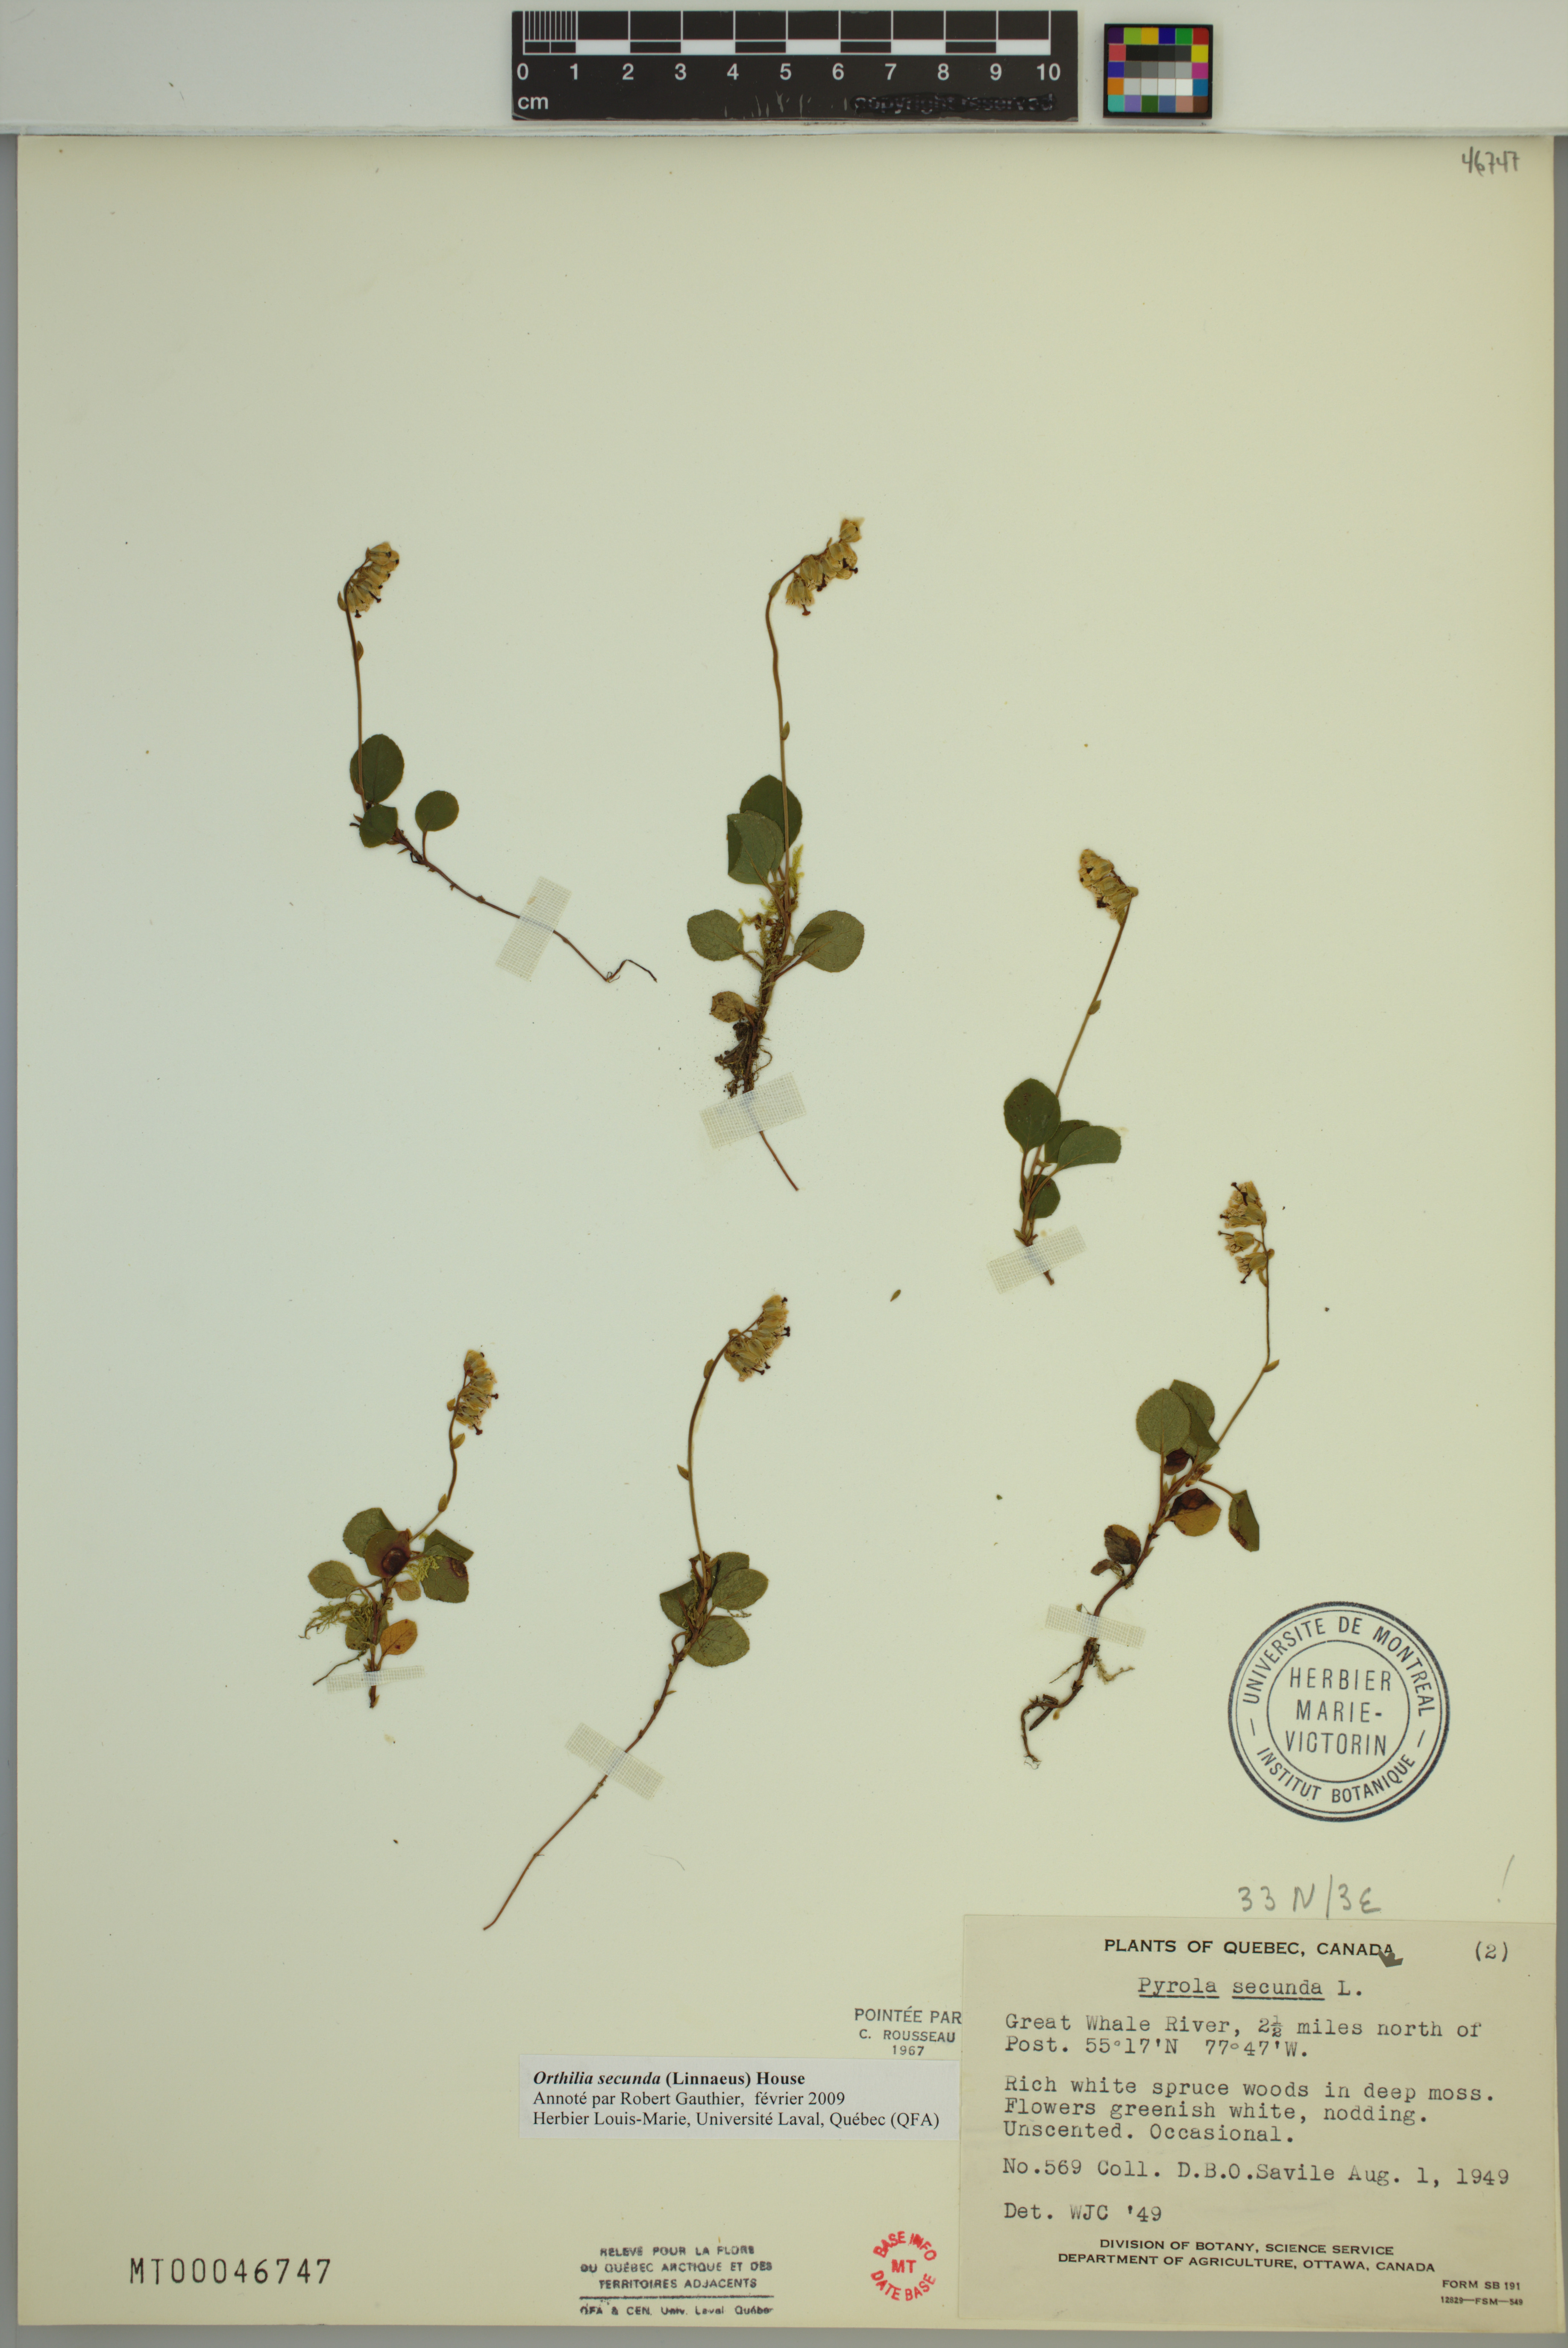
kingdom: Plantae
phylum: Tracheophyta
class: Magnoliopsida
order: Ericales
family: Ericaceae
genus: Orthilia
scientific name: Orthilia secunda
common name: One-sided orthilia
